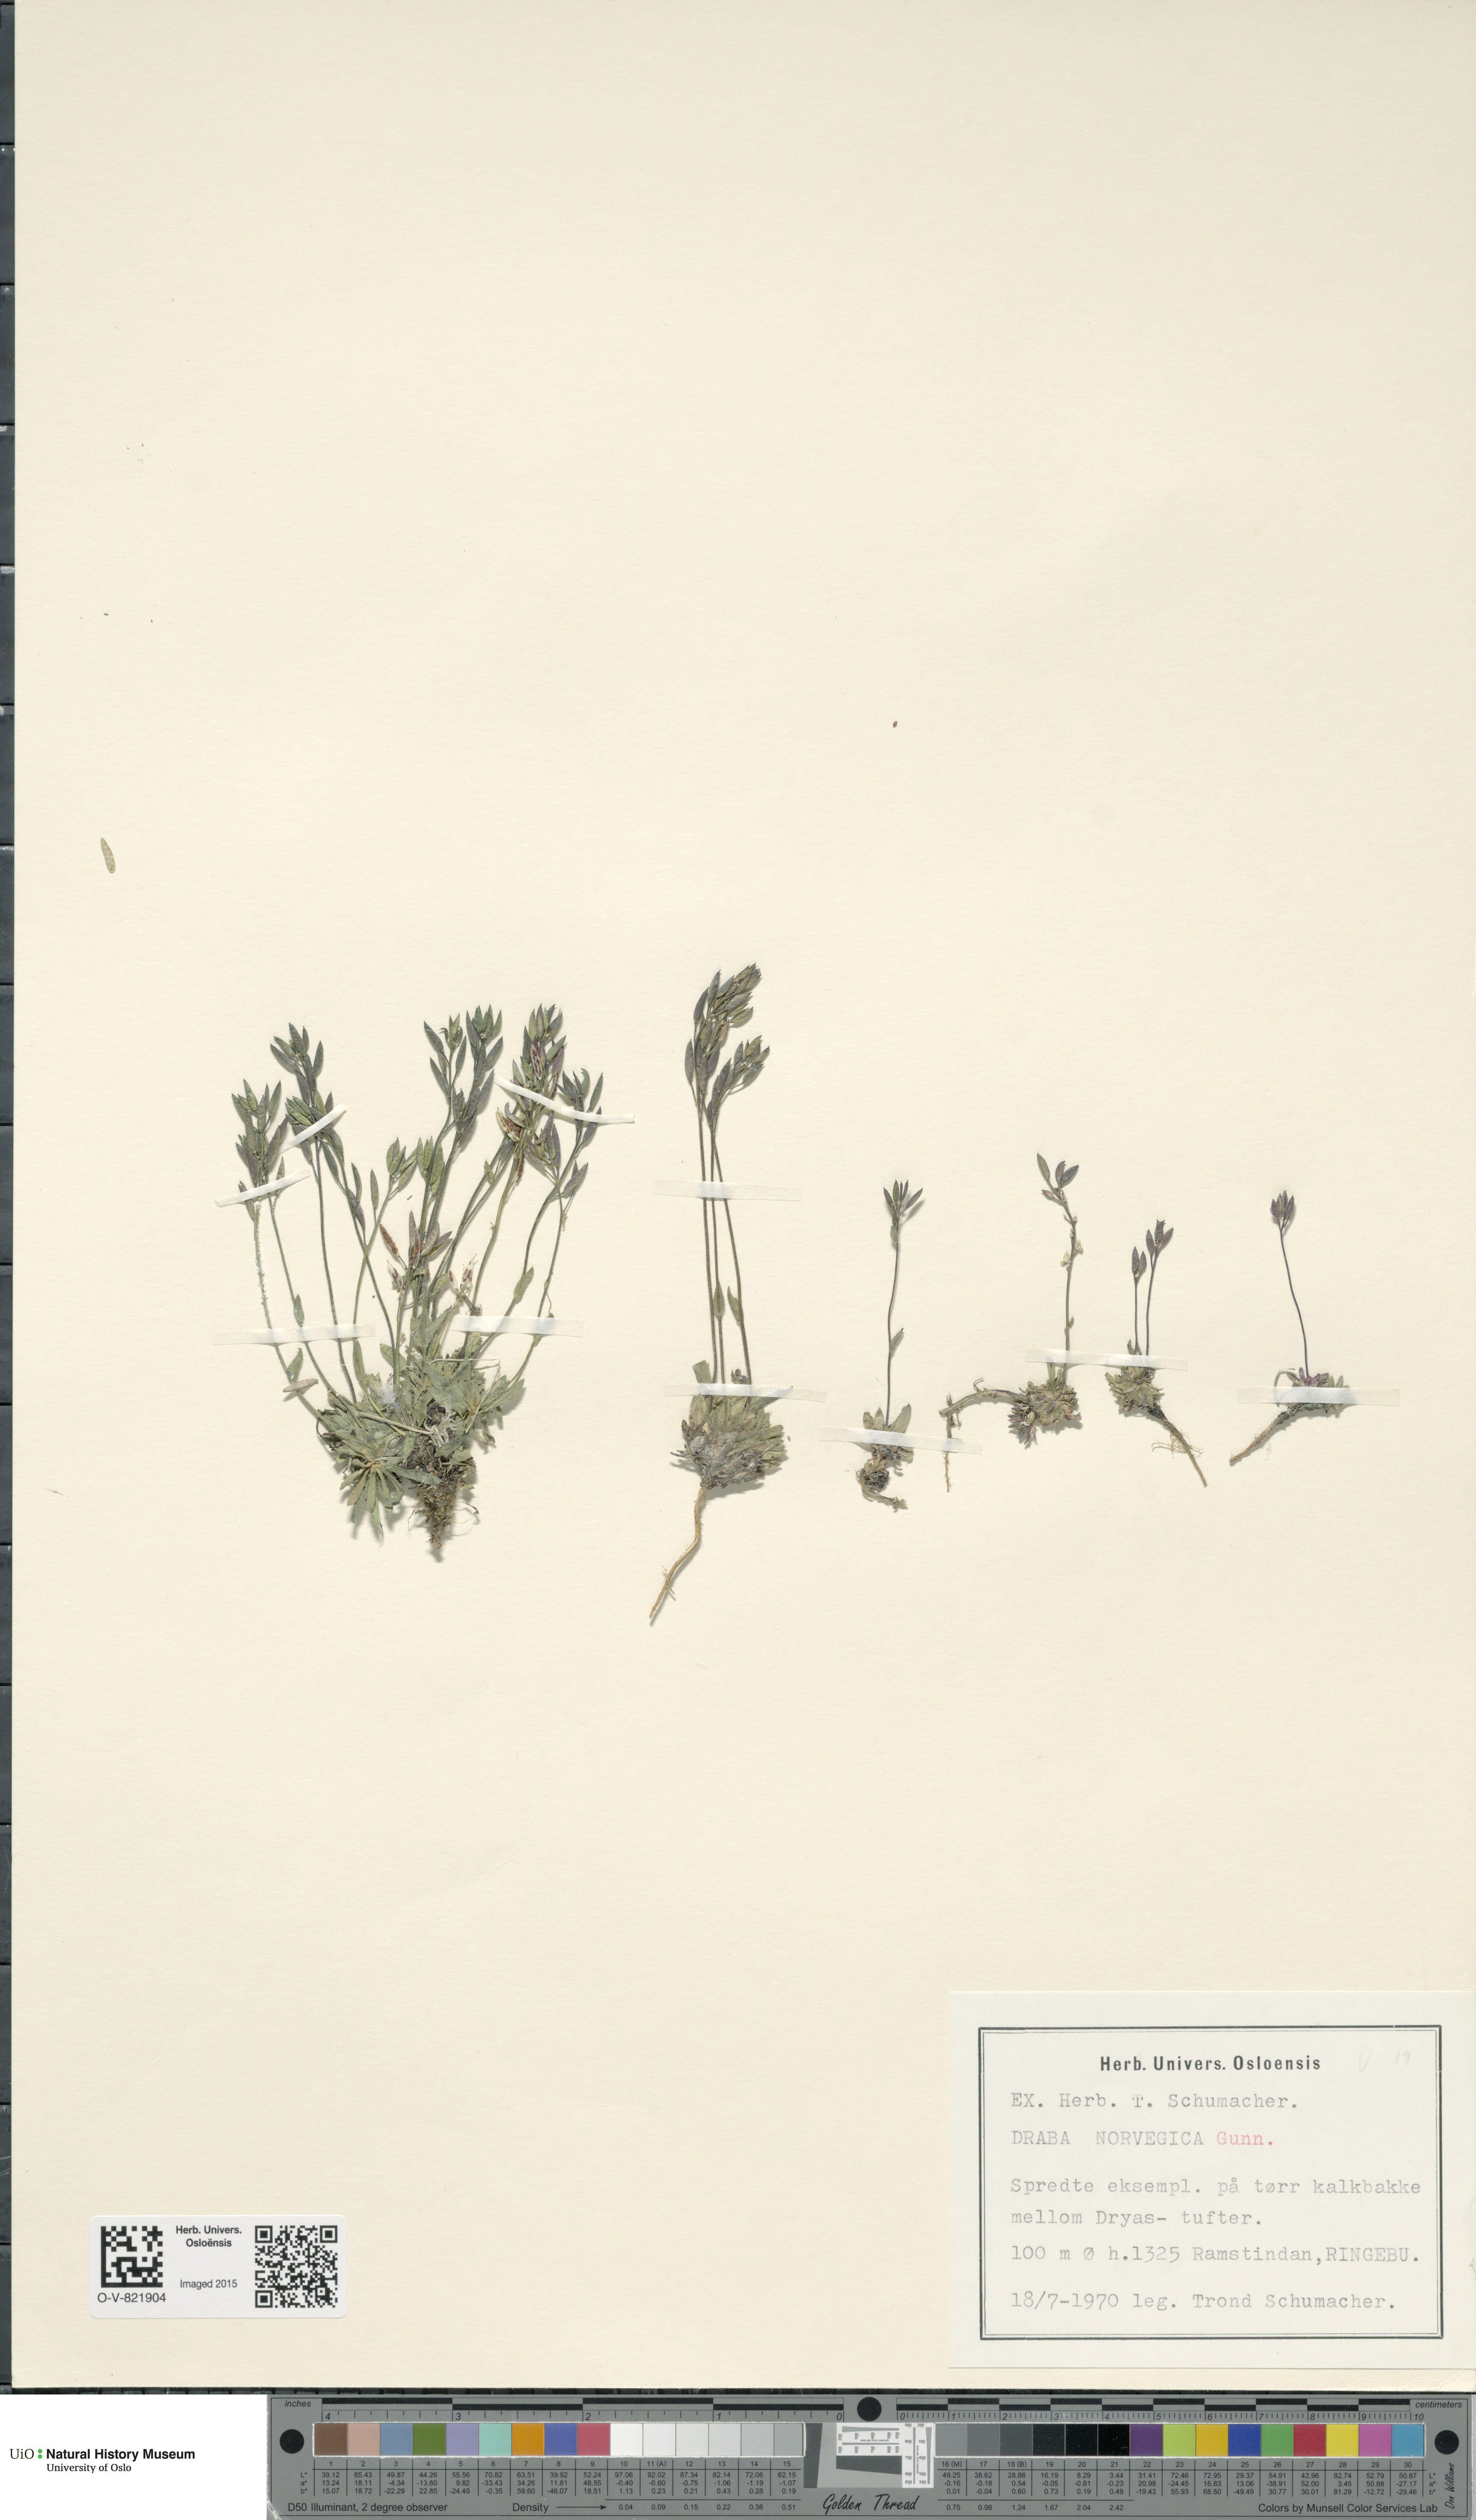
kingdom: Plantae
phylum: Tracheophyta
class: Magnoliopsida
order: Brassicales
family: Brassicaceae
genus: Draba
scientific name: Draba norvegica
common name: Rock whitlowgrass
